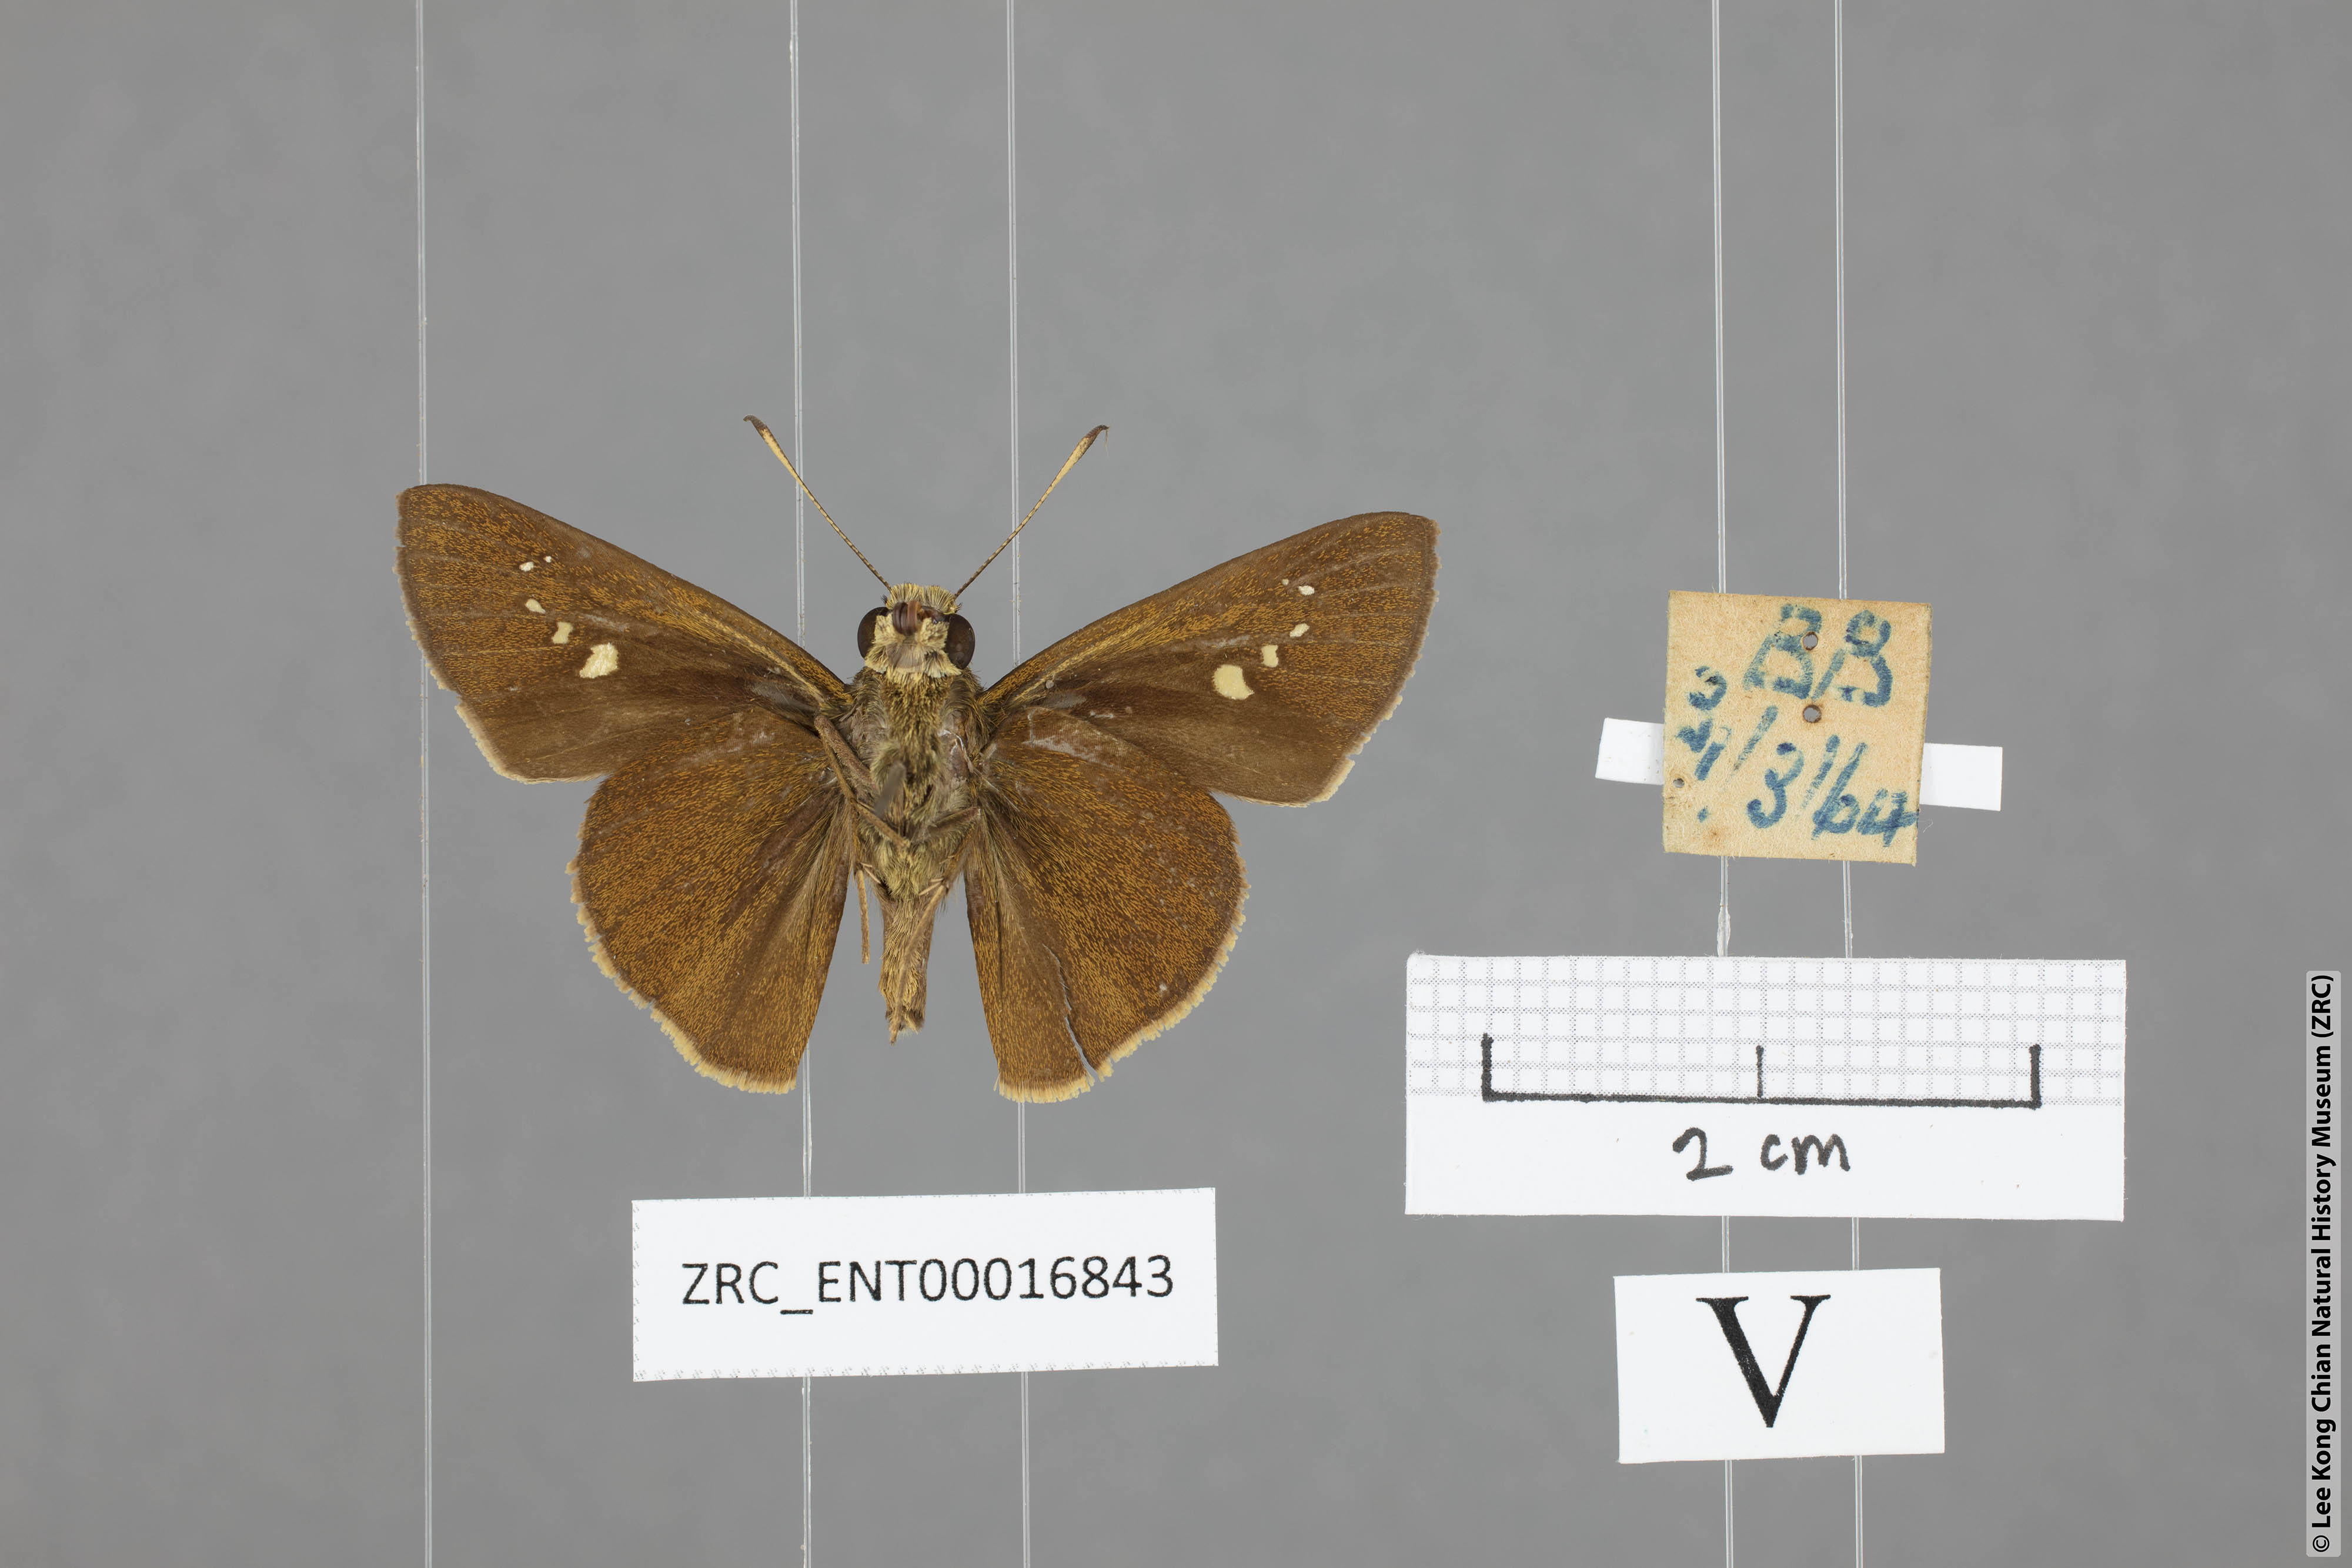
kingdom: Animalia
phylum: Arthropoda
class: Insecta
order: Lepidoptera
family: Hesperiidae
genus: Caltoris
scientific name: Caltoris malaya
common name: Malayan swift
